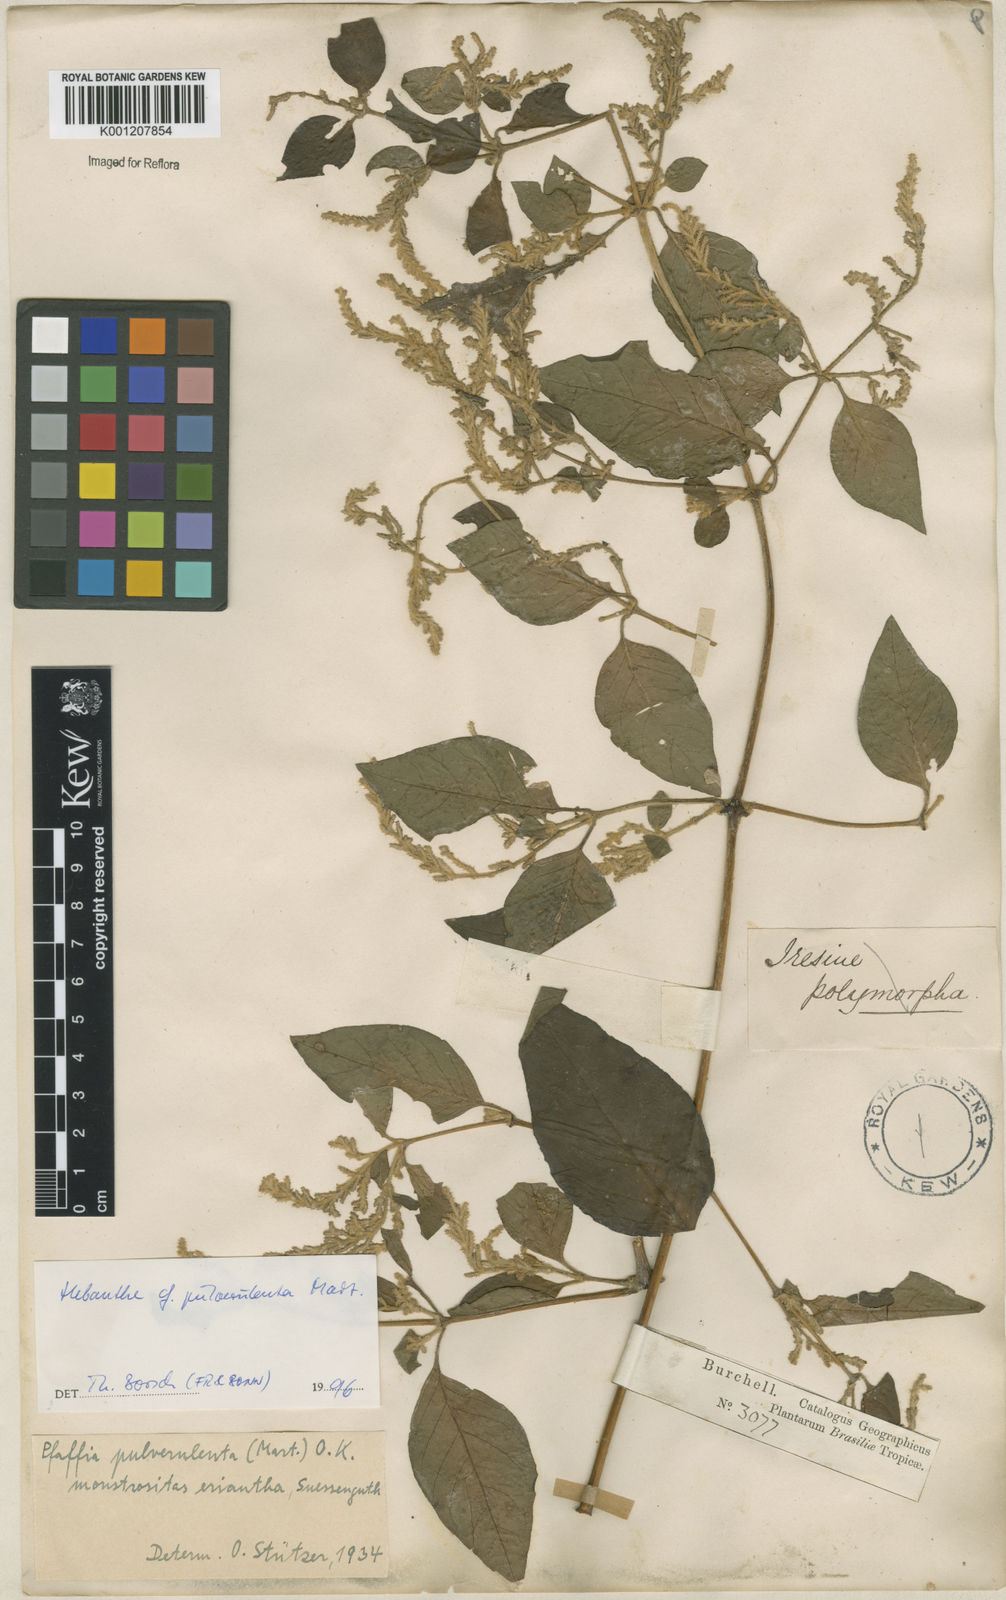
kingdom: Plantae
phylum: Tracheophyta
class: Magnoliopsida
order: Caryophyllales
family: Amaranthaceae
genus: Hebanthe
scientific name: Hebanthe pulverulenta
